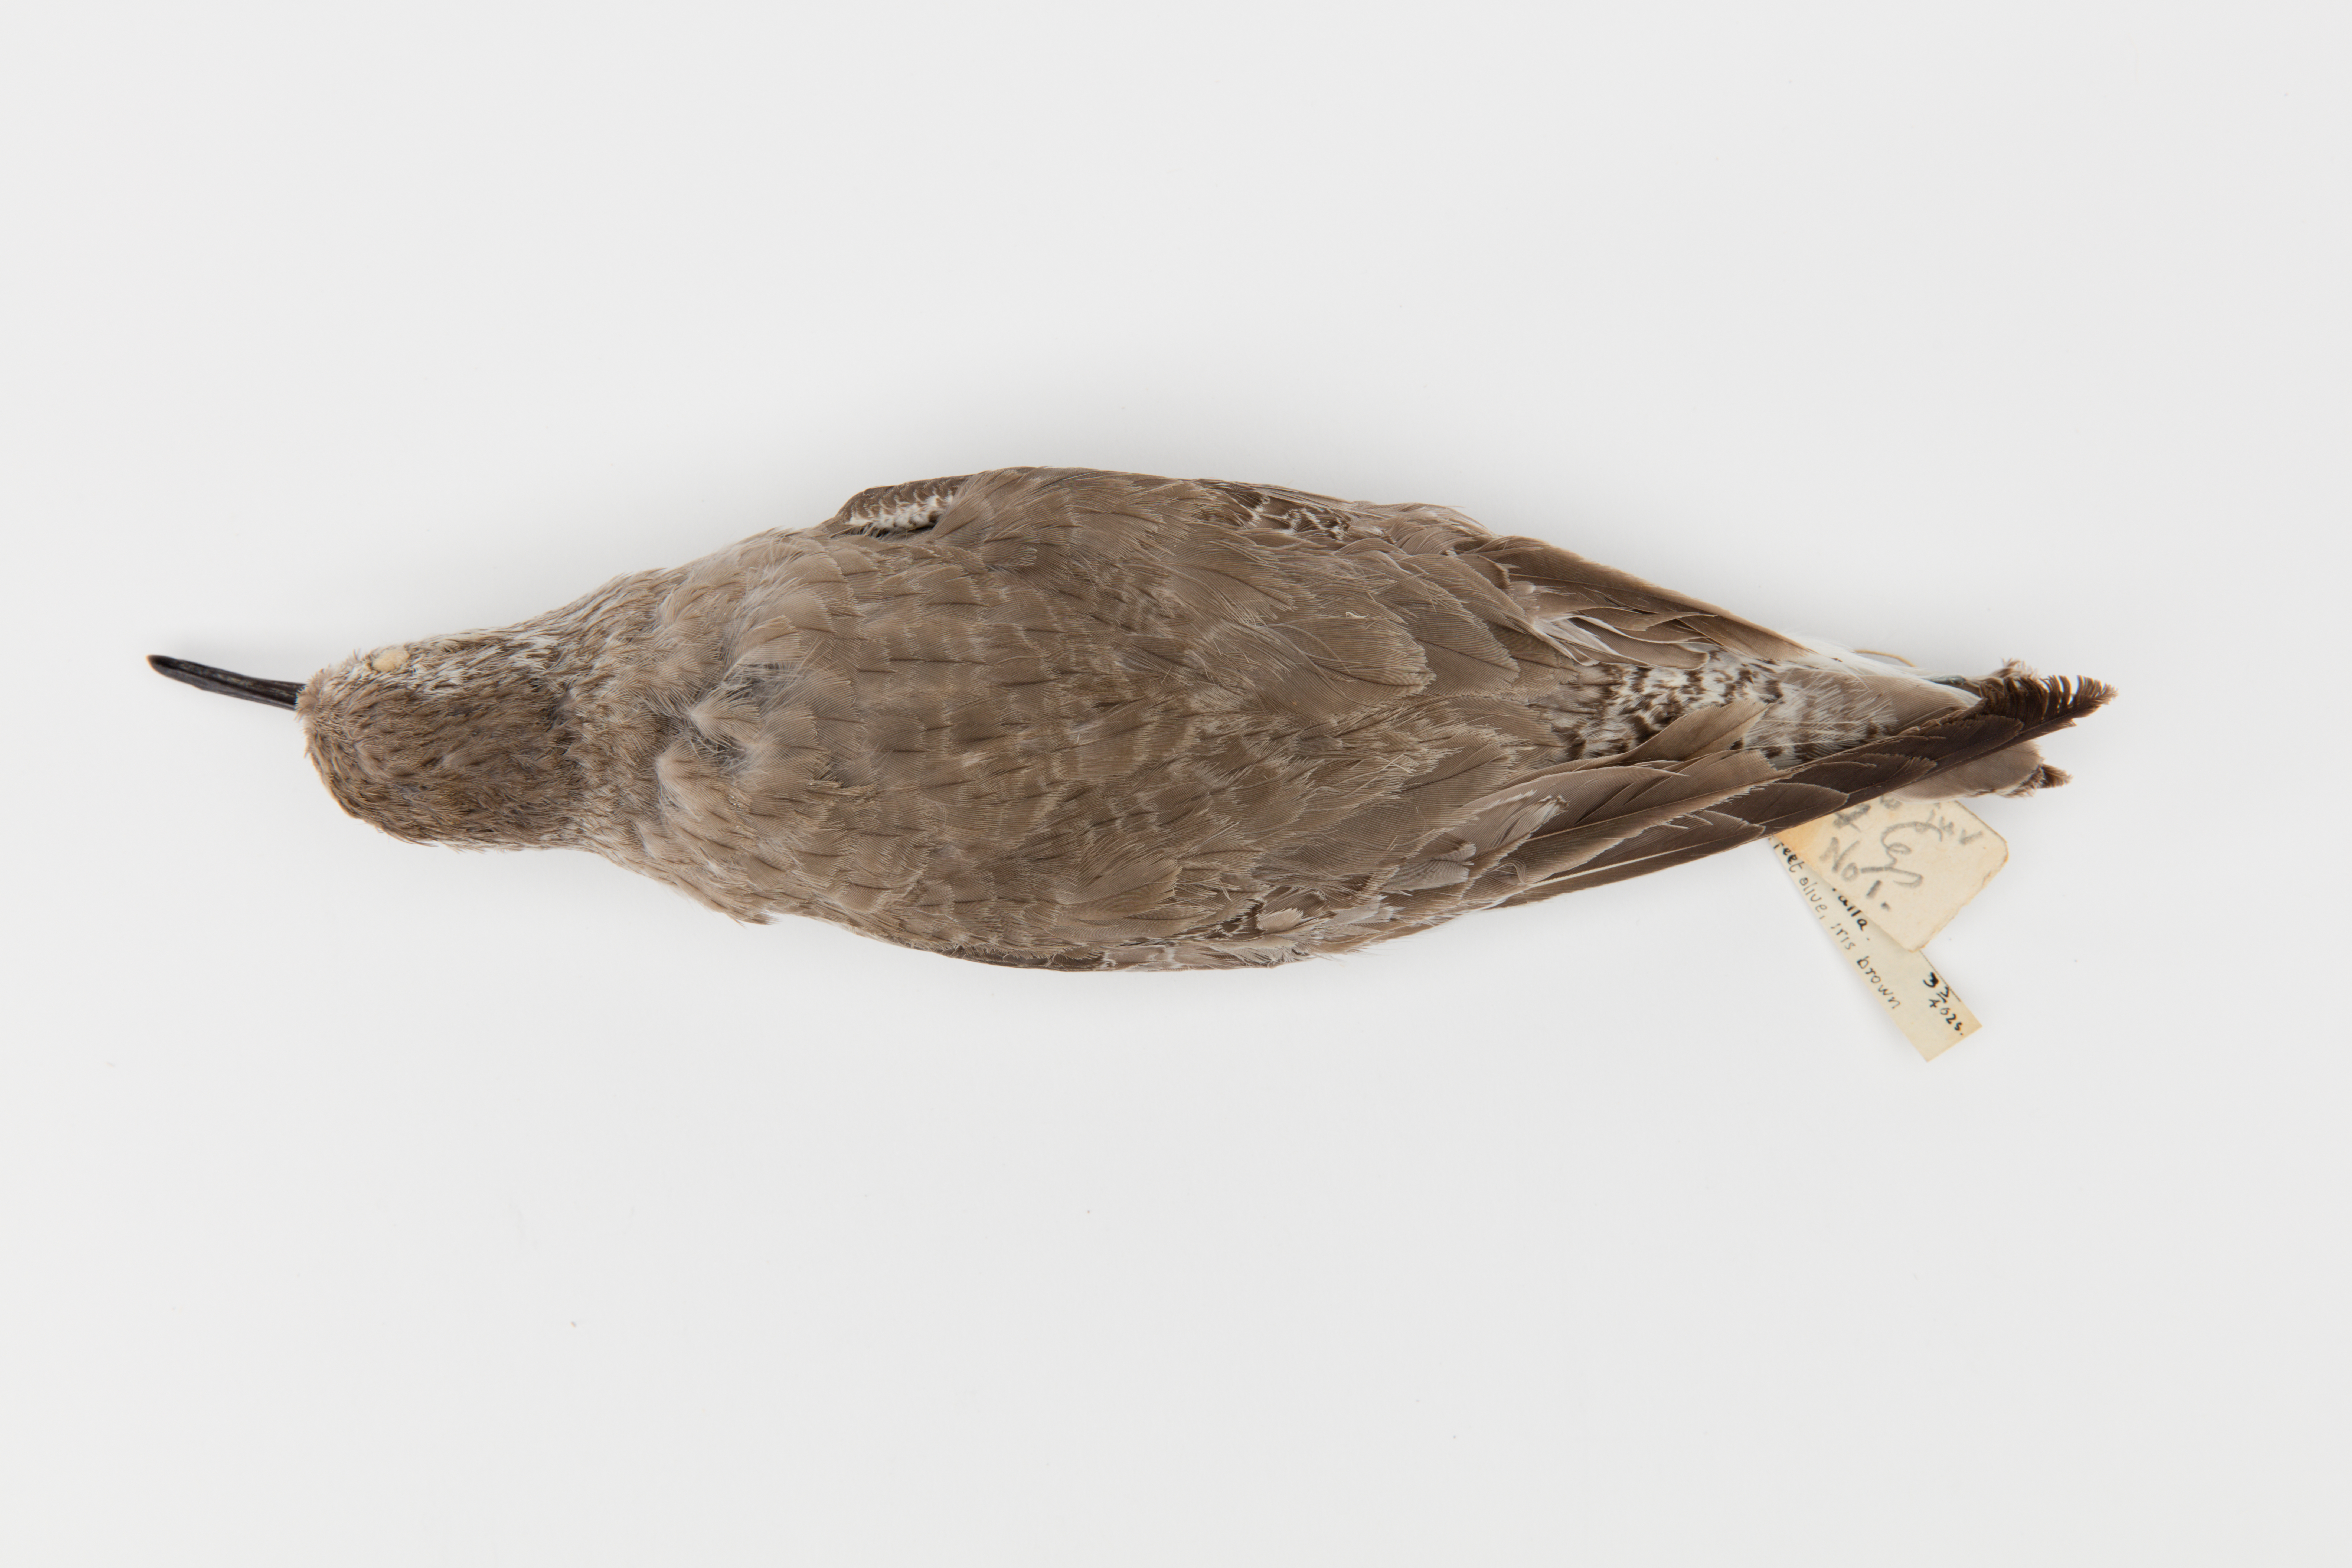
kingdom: Animalia
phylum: Chordata
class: Aves
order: Charadriiformes
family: Scolopacidae
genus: Calidris
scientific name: Calidris canutus
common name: Red knot
